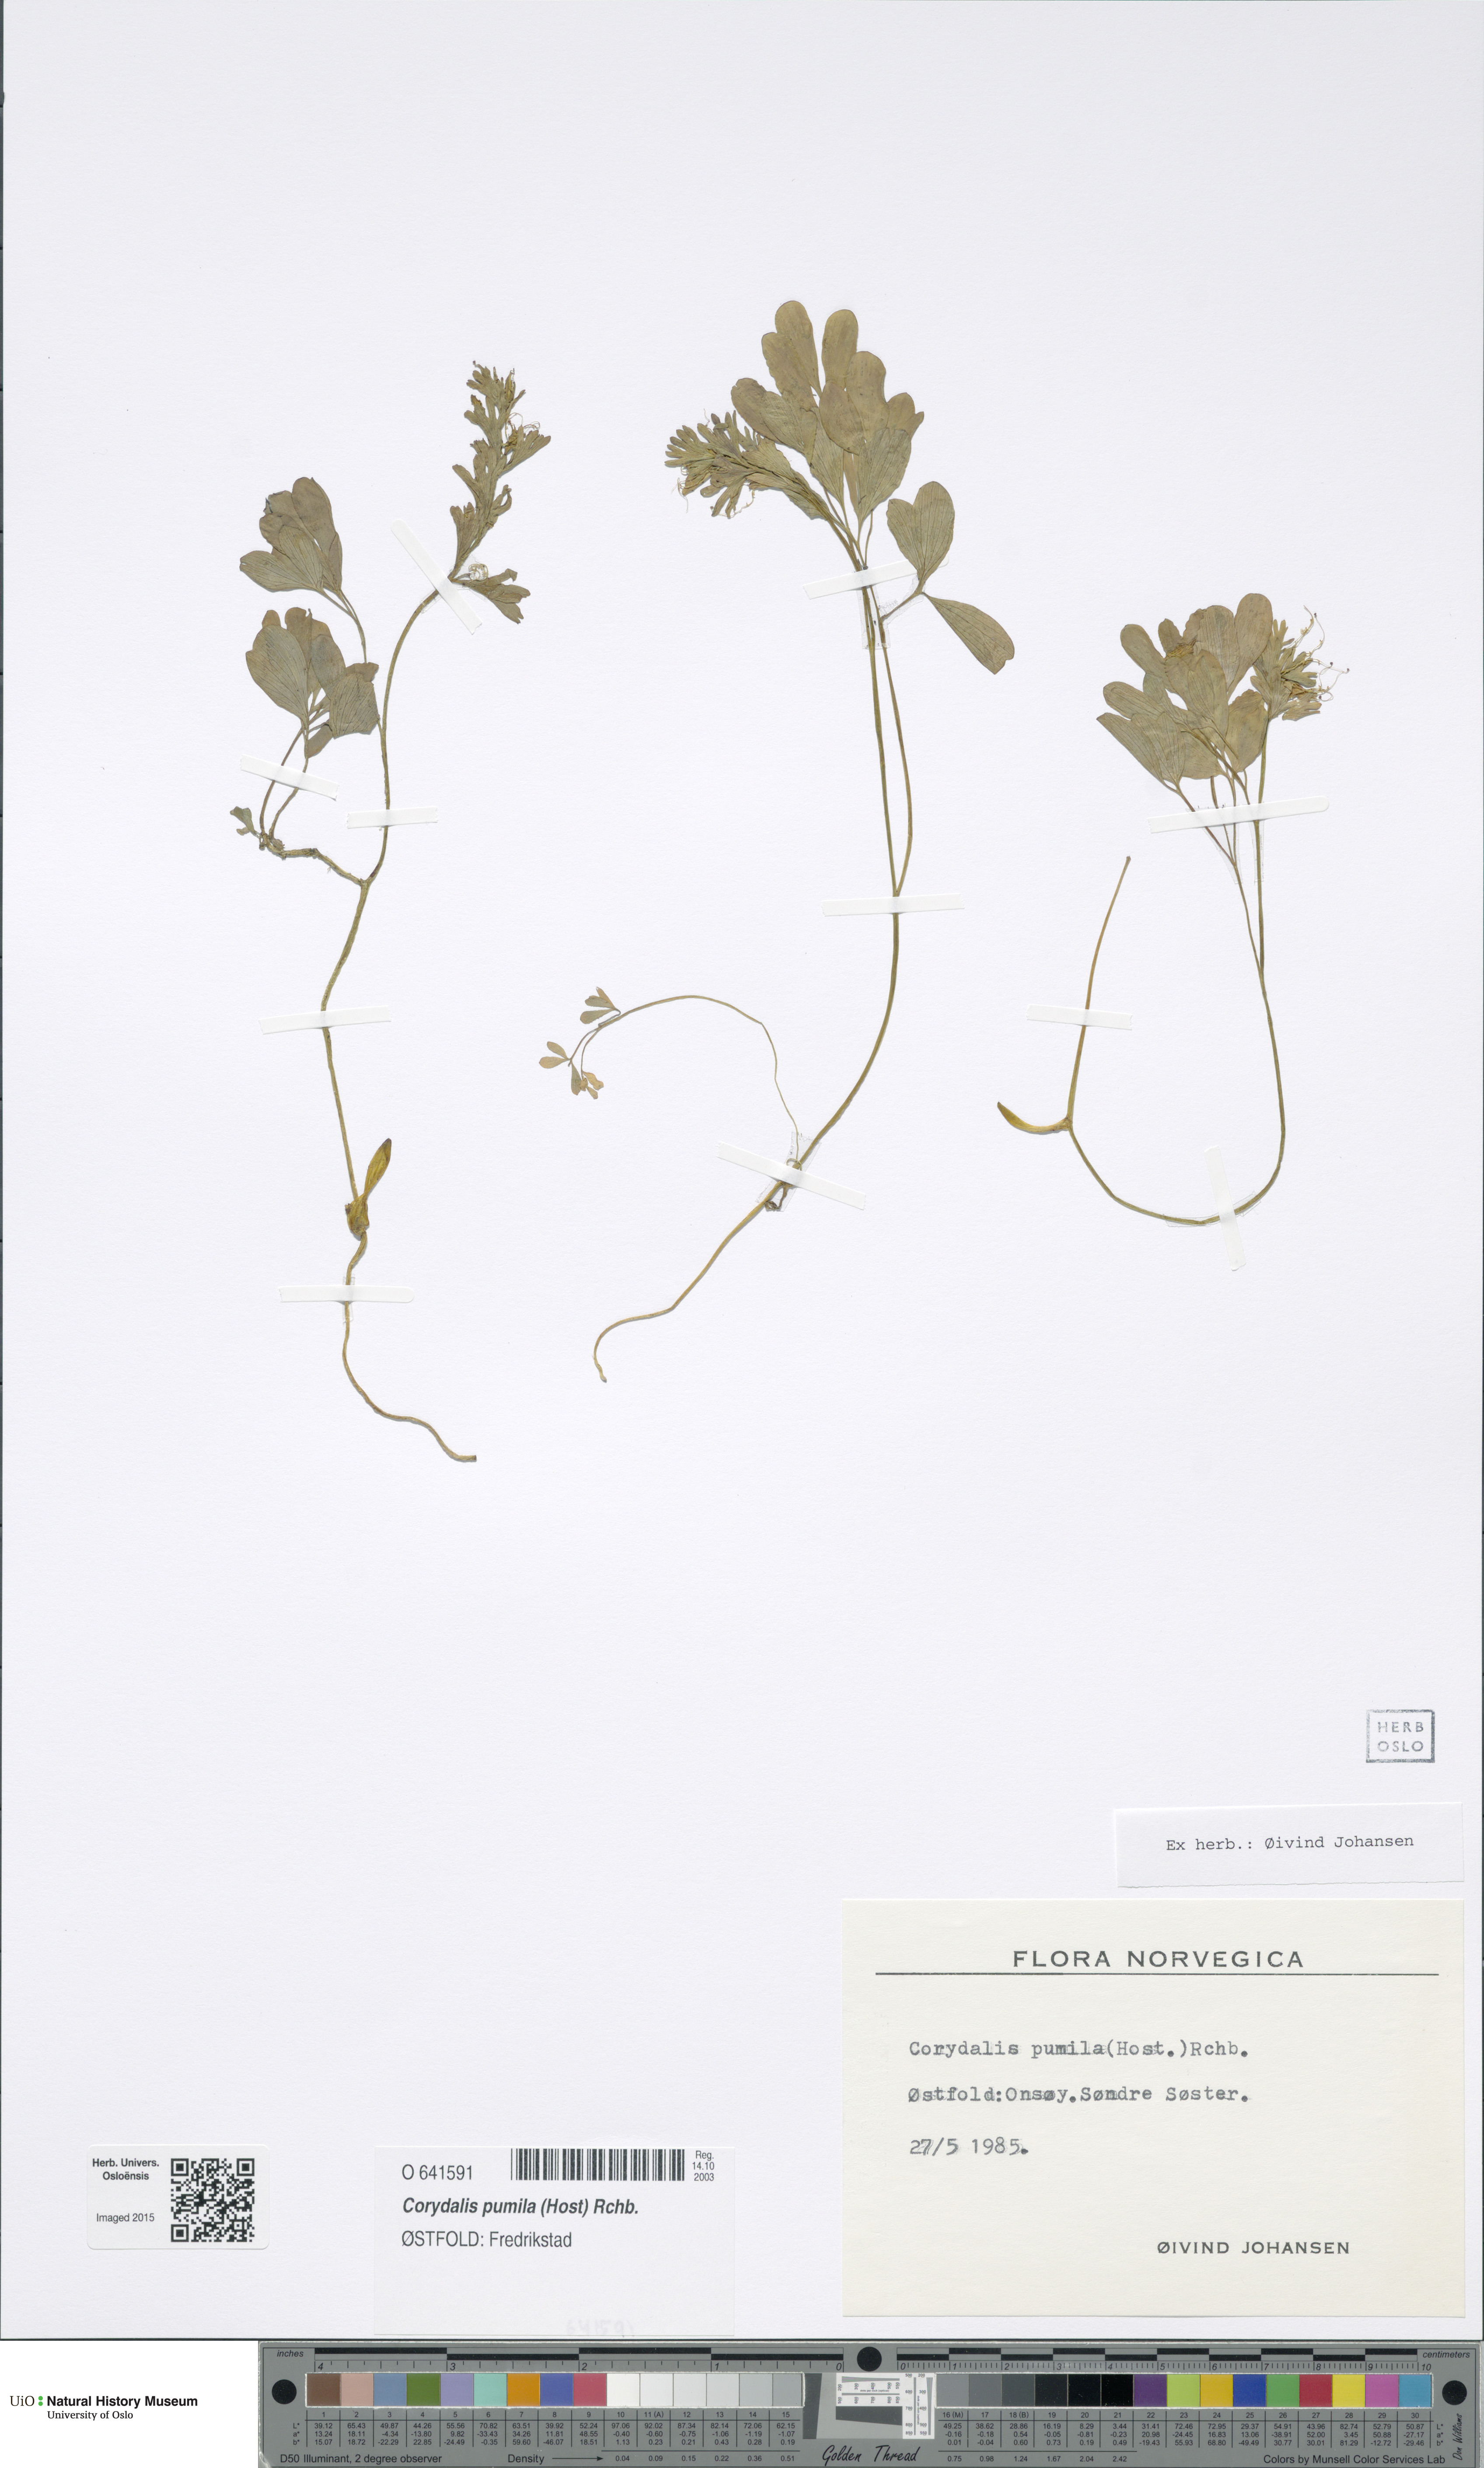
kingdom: Plantae
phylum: Tracheophyta
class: Magnoliopsida
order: Ranunculales
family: Papaveraceae
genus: Corydalis
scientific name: Corydalis pumila
